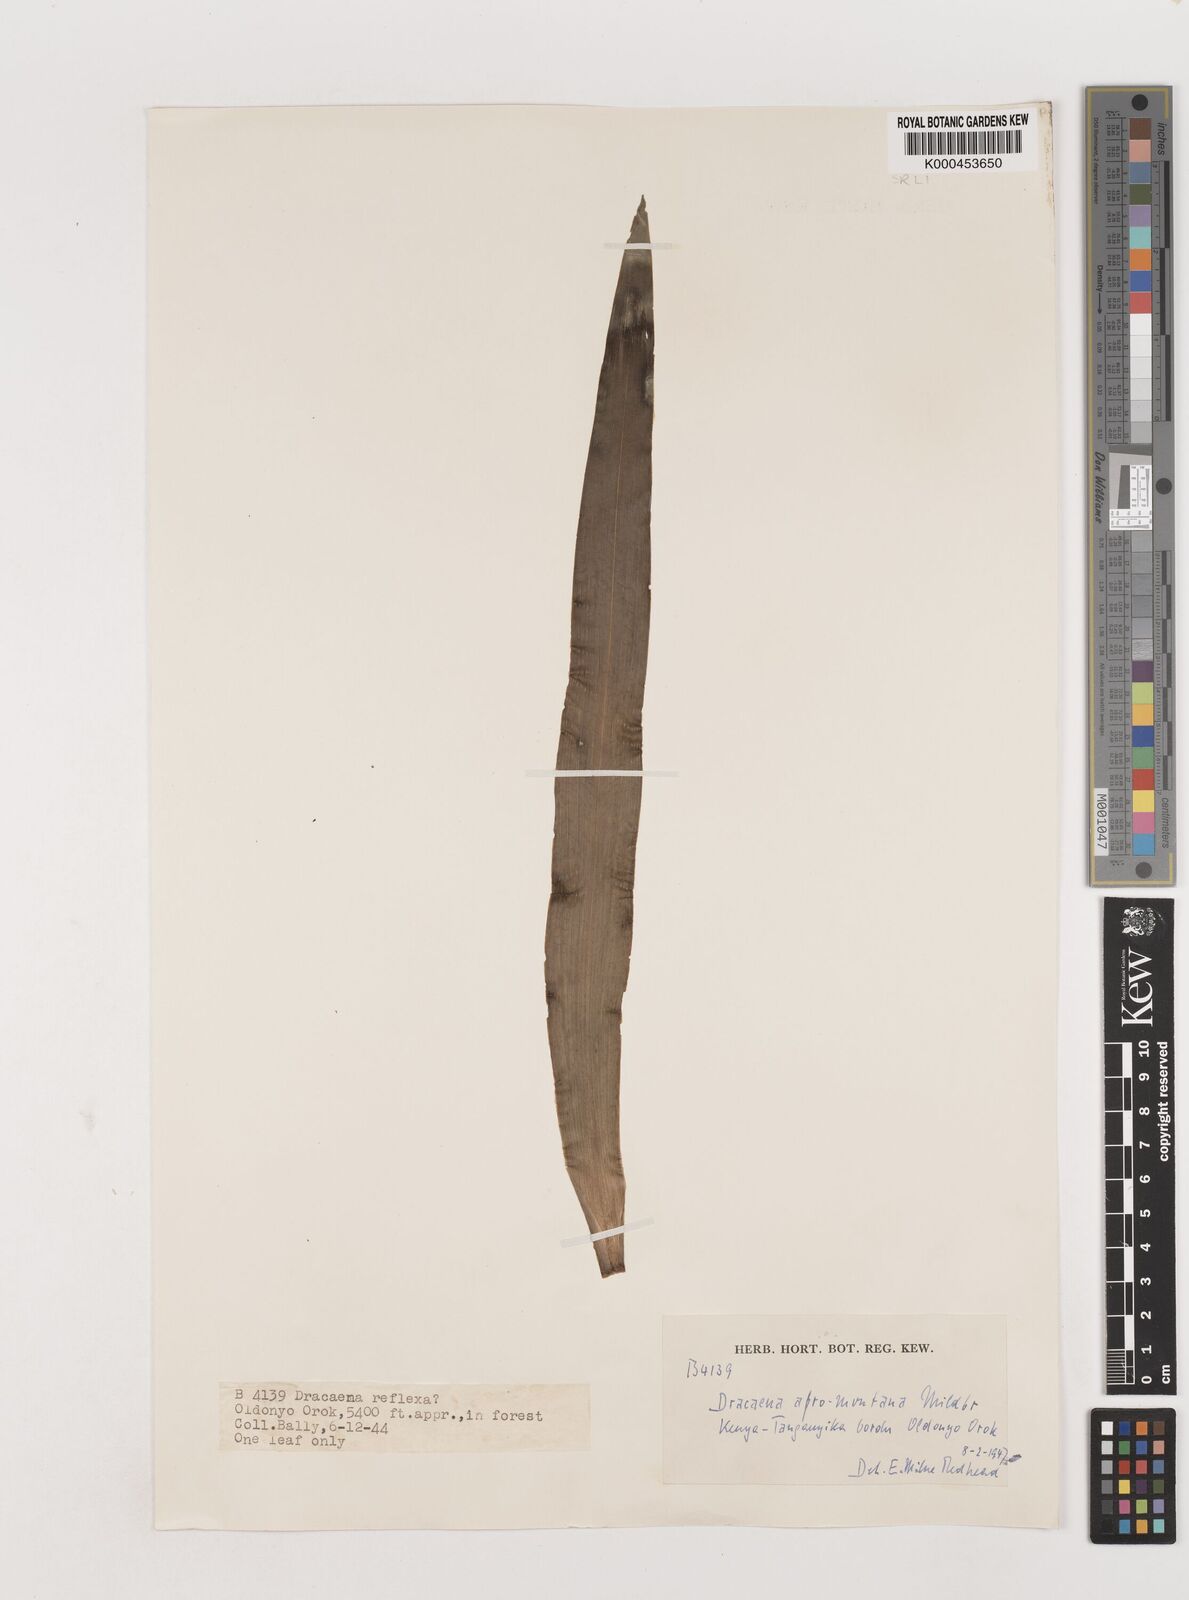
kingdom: Plantae
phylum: Tracheophyta
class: Liliopsida
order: Asparagales
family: Asparagaceae
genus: Dracaena
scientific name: Dracaena afromontana
